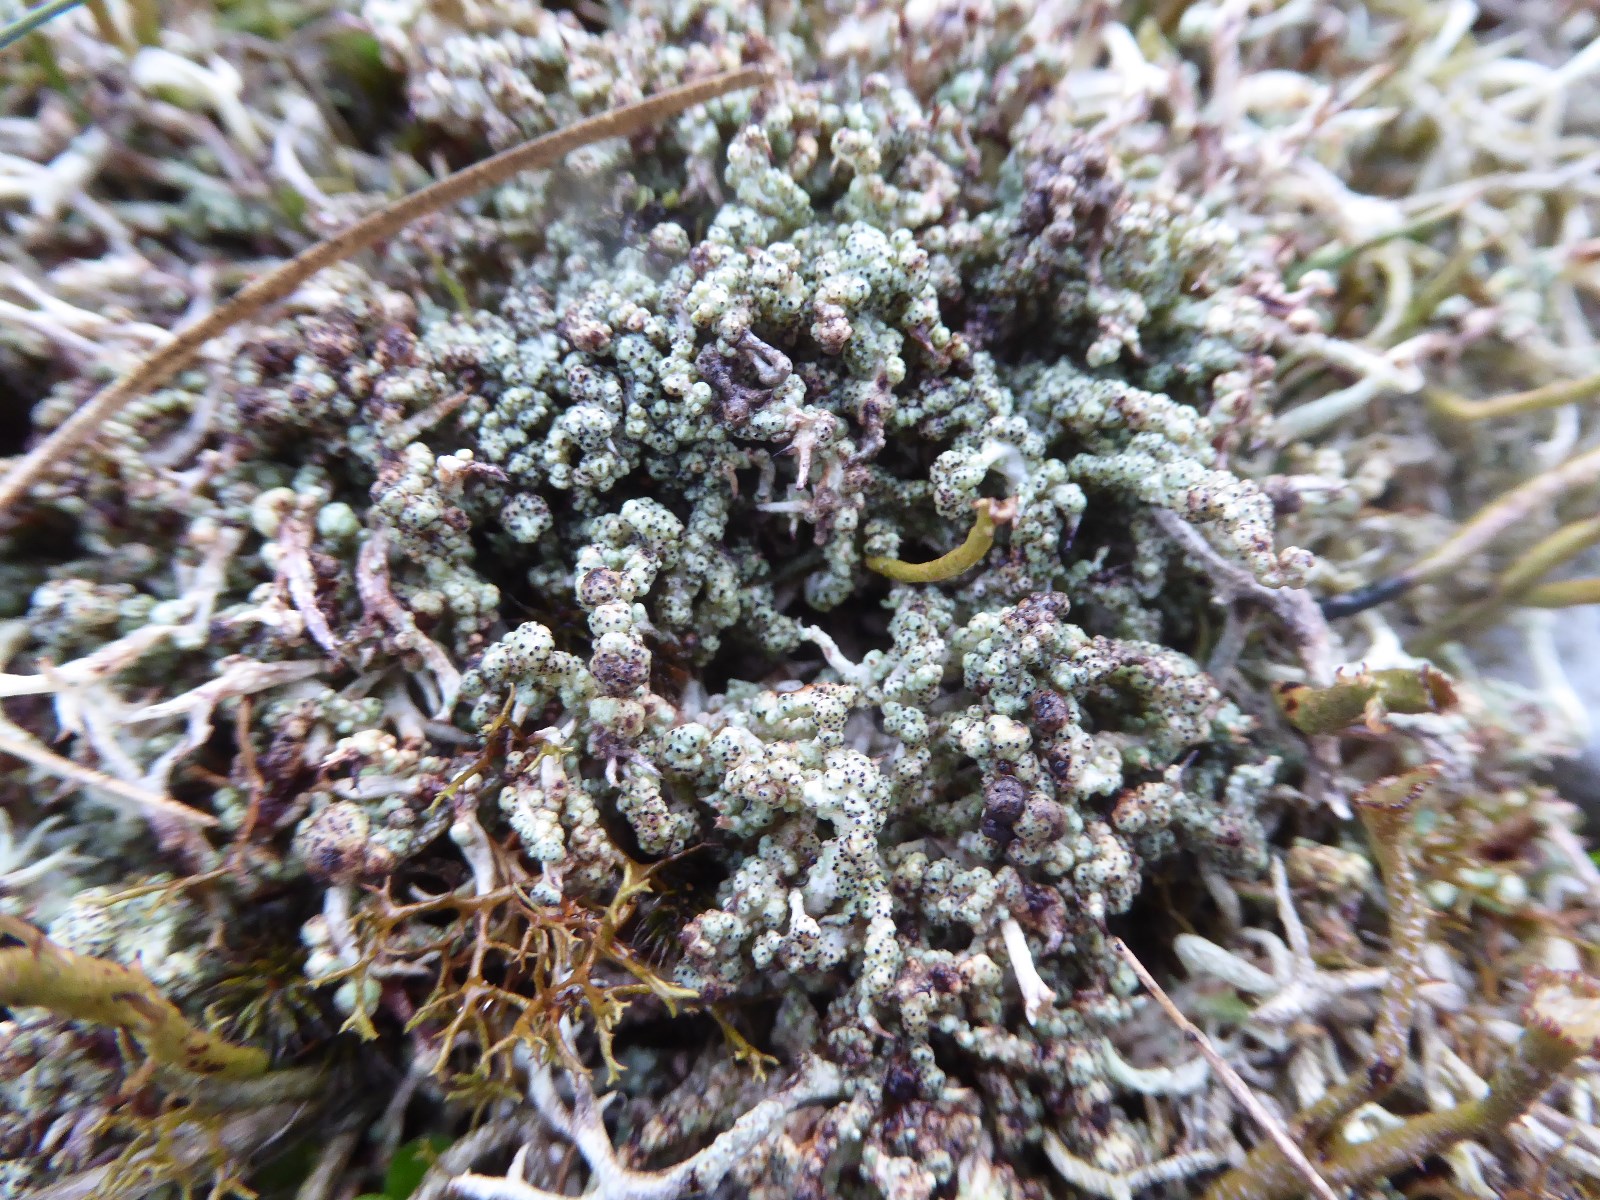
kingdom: Fungi
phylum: Ascomycota
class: Lecanoromycetes
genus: Bachmanniomyces
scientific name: Bachmanniomyces uncialicola
